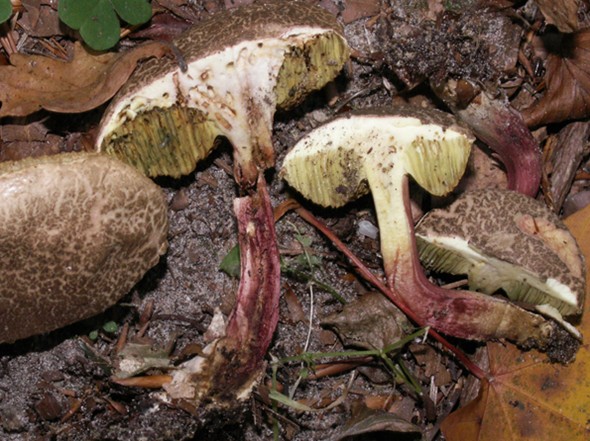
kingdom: Fungi
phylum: Basidiomycota
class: Agaricomycetes
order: Boletales
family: Boletaceae
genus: Xerocomellus
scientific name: Xerocomellus chrysenteron
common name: rødsprukken rørhat
